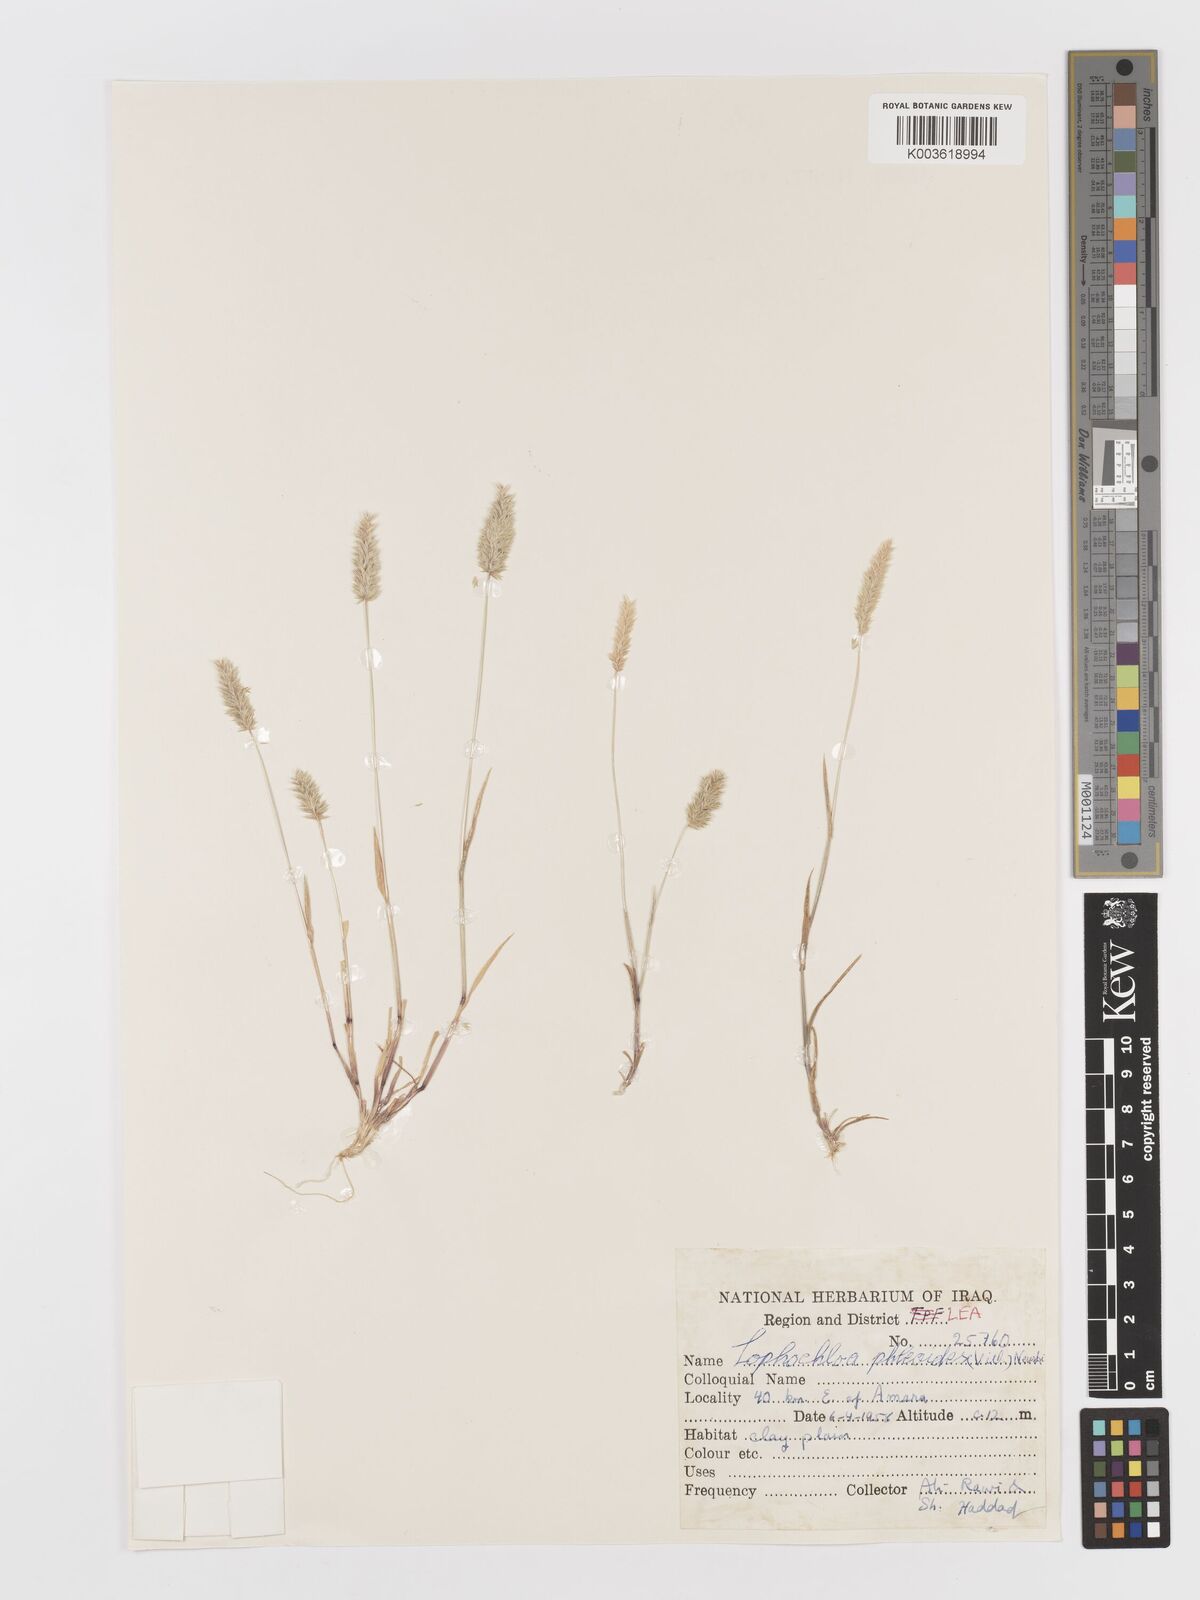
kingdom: Plantae
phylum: Tracheophyta
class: Liliopsida
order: Poales
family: Poaceae
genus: Rostraria
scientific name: Rostraria cristata
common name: Mediterranean hair-grass
